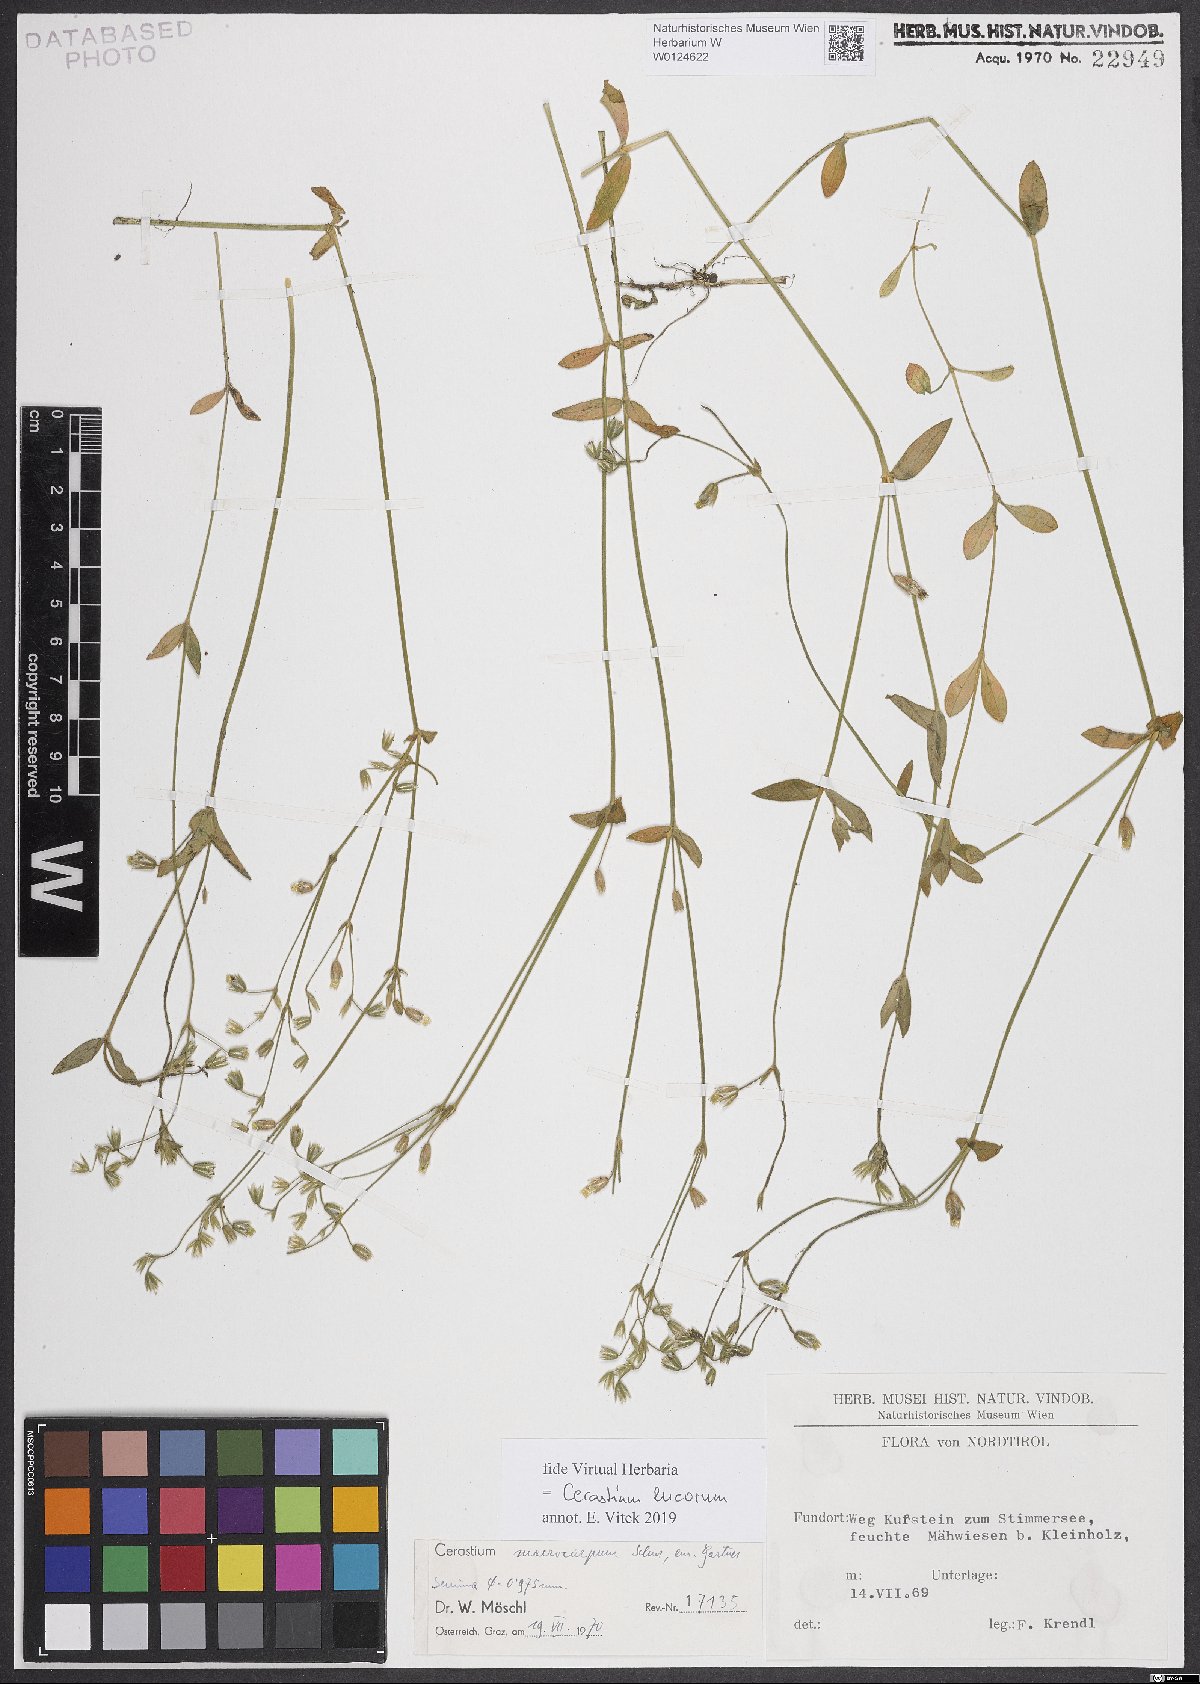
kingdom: Plantae
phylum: Tracheophyta
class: Magnoliopsida
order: Caryophyllales
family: Caryophyllaceae
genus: Cerastium
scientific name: Cerastium lucorum
